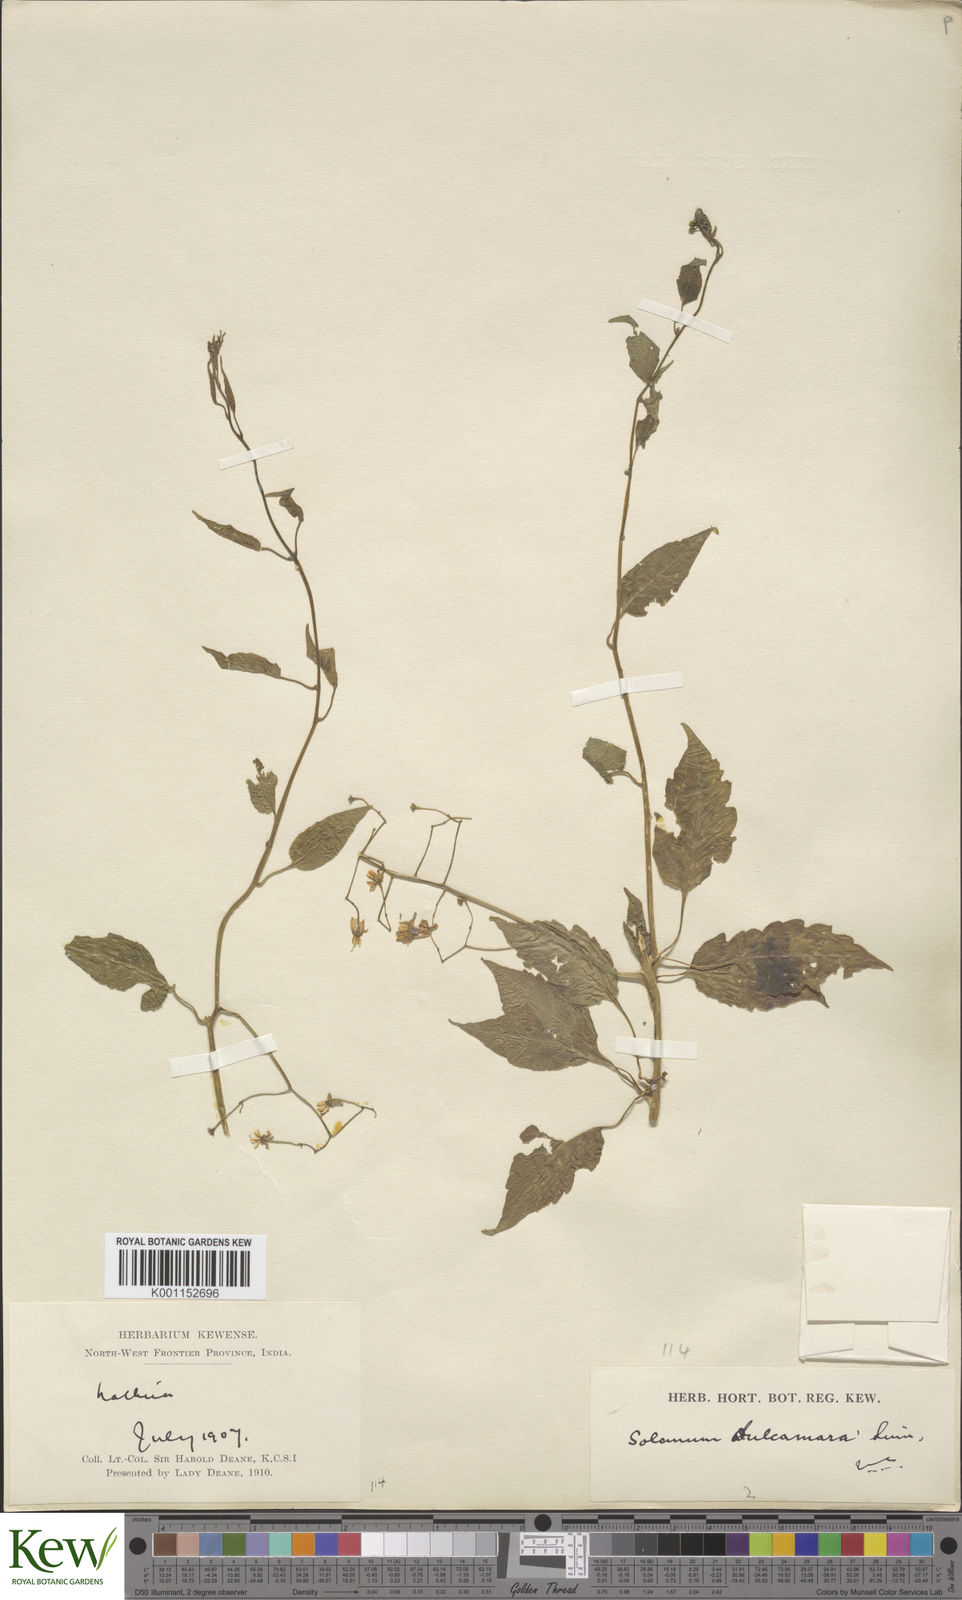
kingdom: Plantae
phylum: Tracheophyta
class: Magnoliopsida
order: Solanales
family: Solanaceae
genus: Solanum
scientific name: Solanum dulcamara
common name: Climbing nightshade
